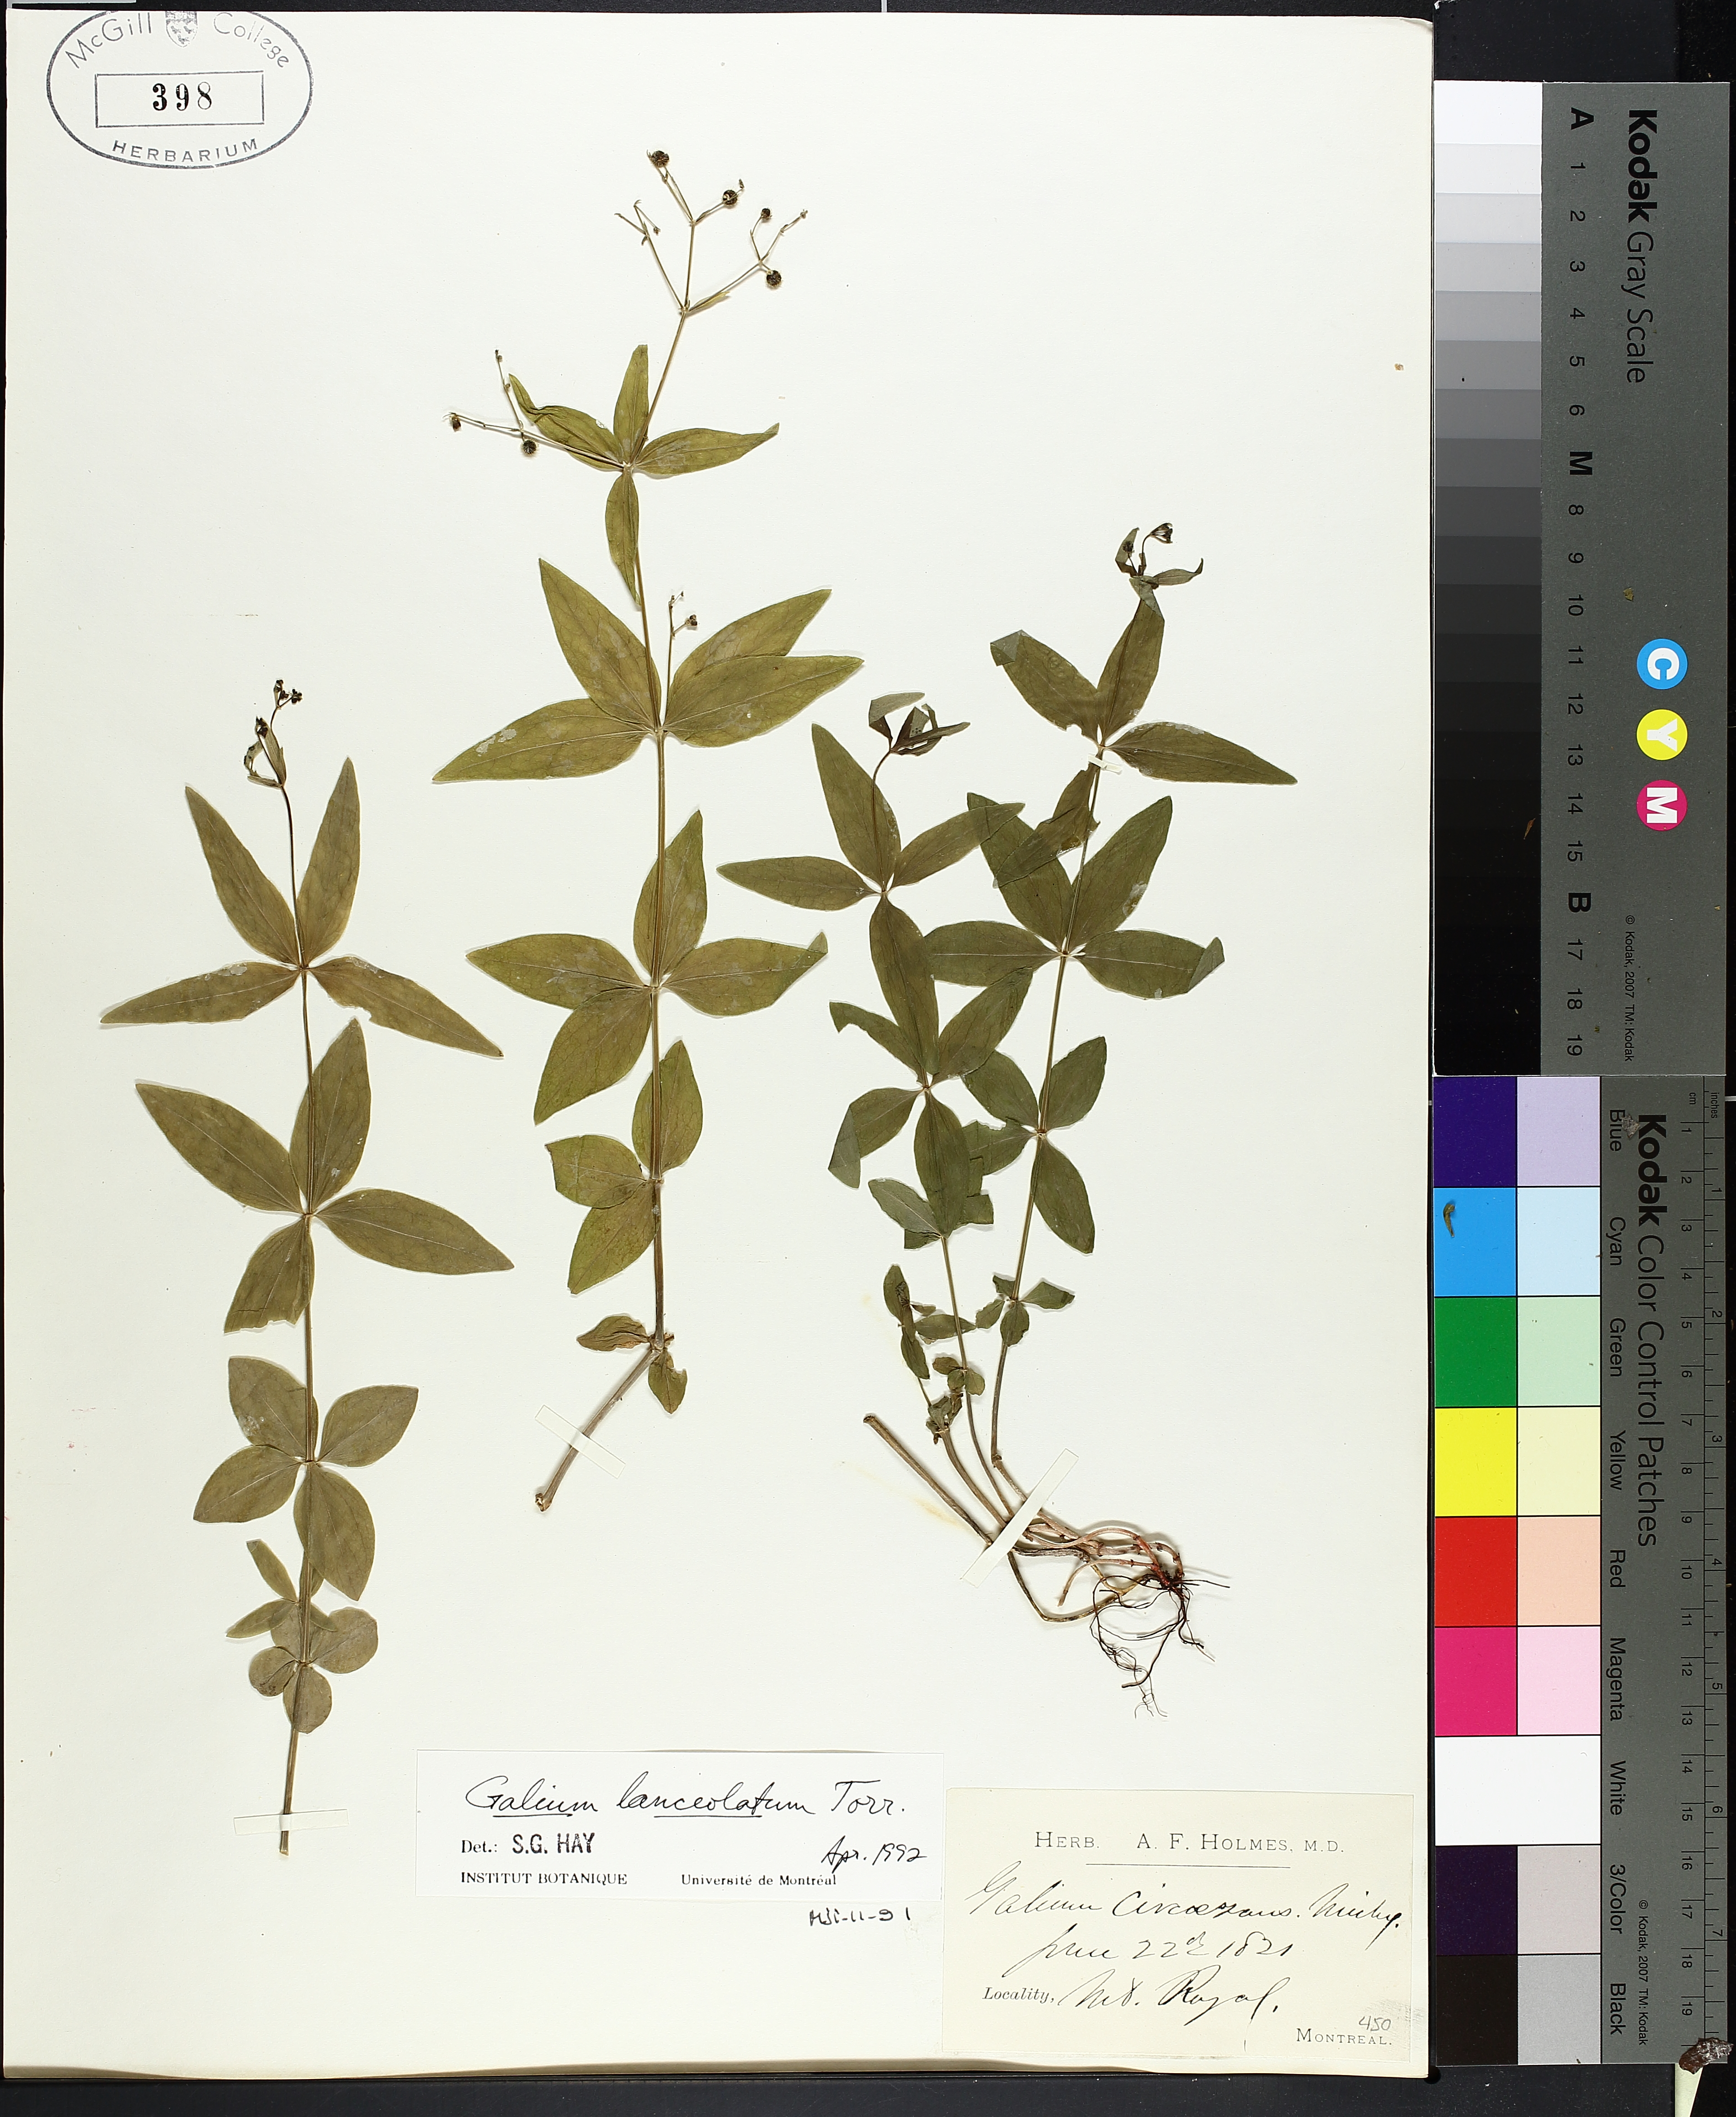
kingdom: Plantae
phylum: Tracheophyta
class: Magnoliopsida
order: Gentianales
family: Rubiaceae
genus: Galium
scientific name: Galium lanceolatum
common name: Lance-leaved wild licorice
